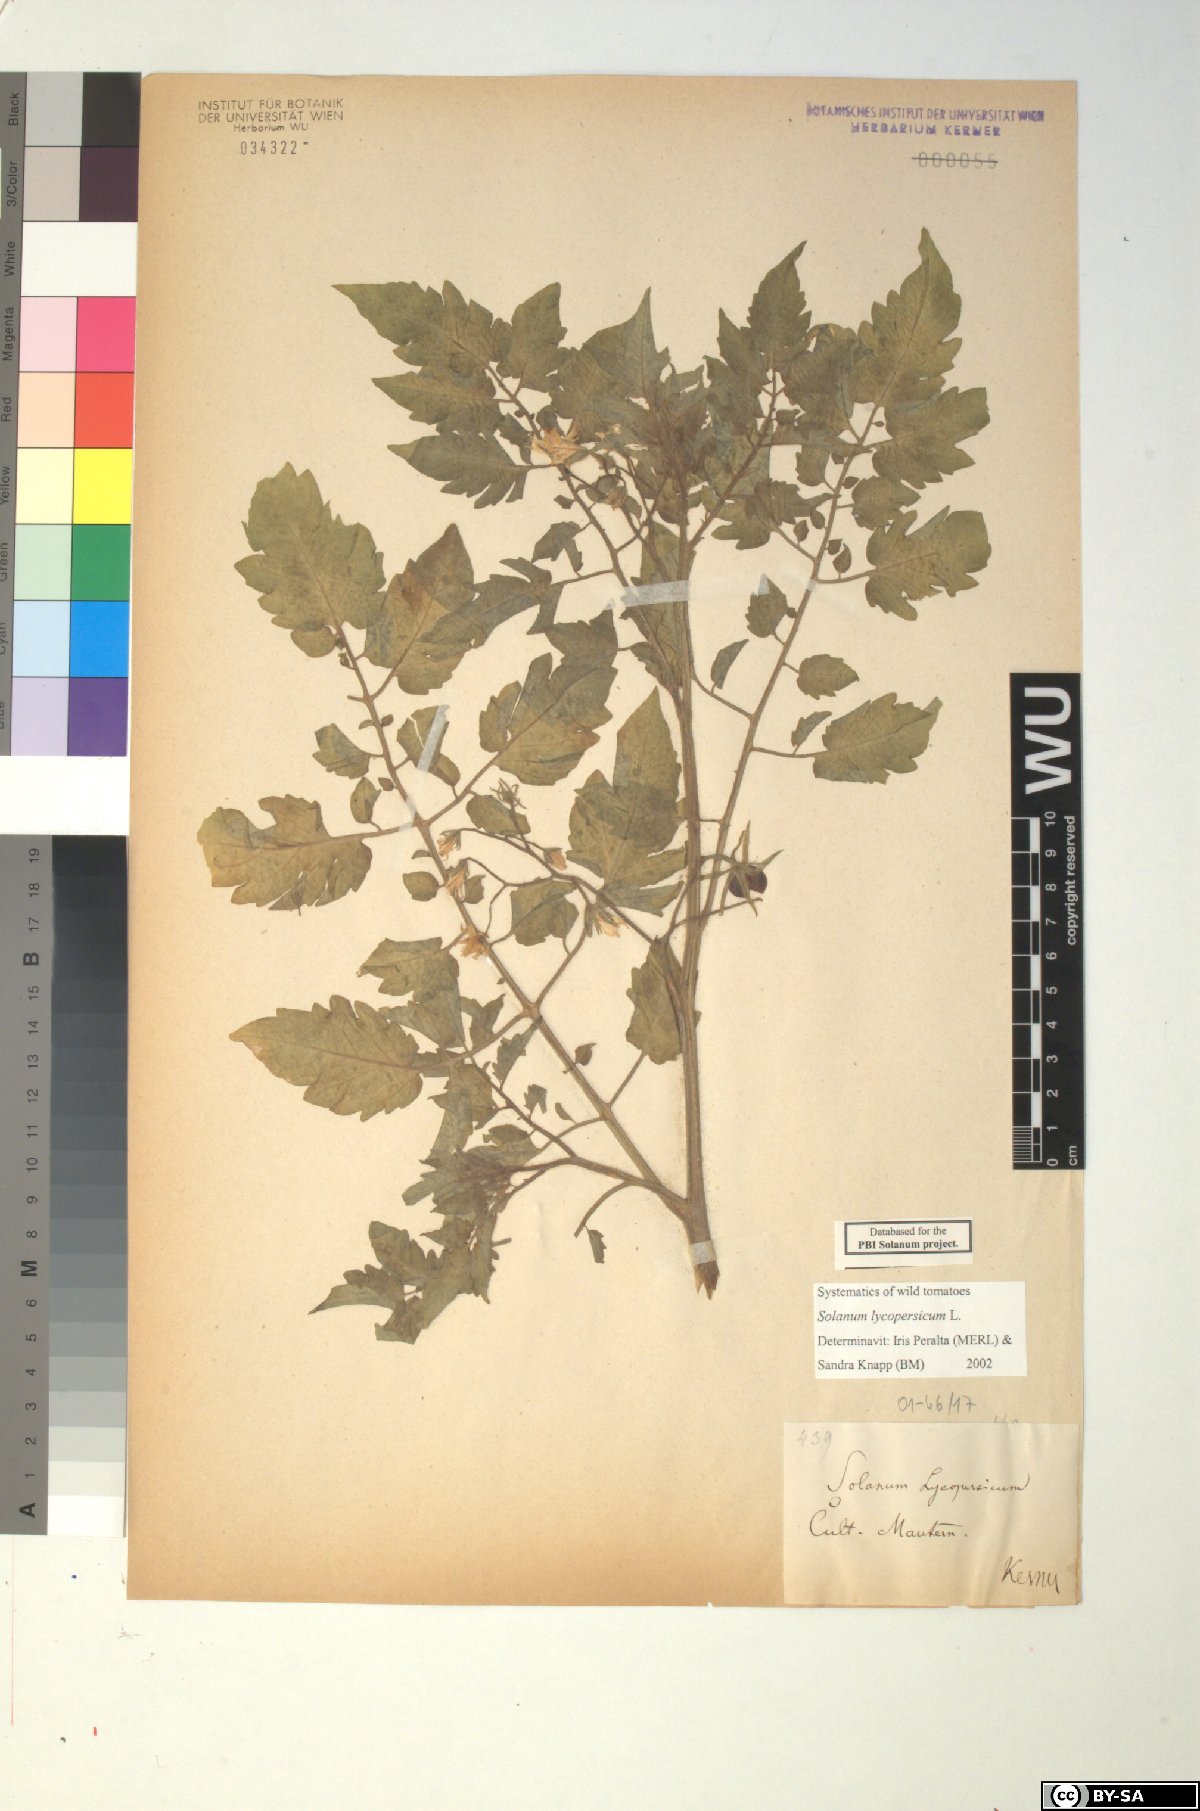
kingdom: Plantae
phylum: Tracheophyta
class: Magnoliopsida
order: Solanales
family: Solanaceae
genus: Solanum
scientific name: Solanum lycopersicum
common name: Garden tomato
